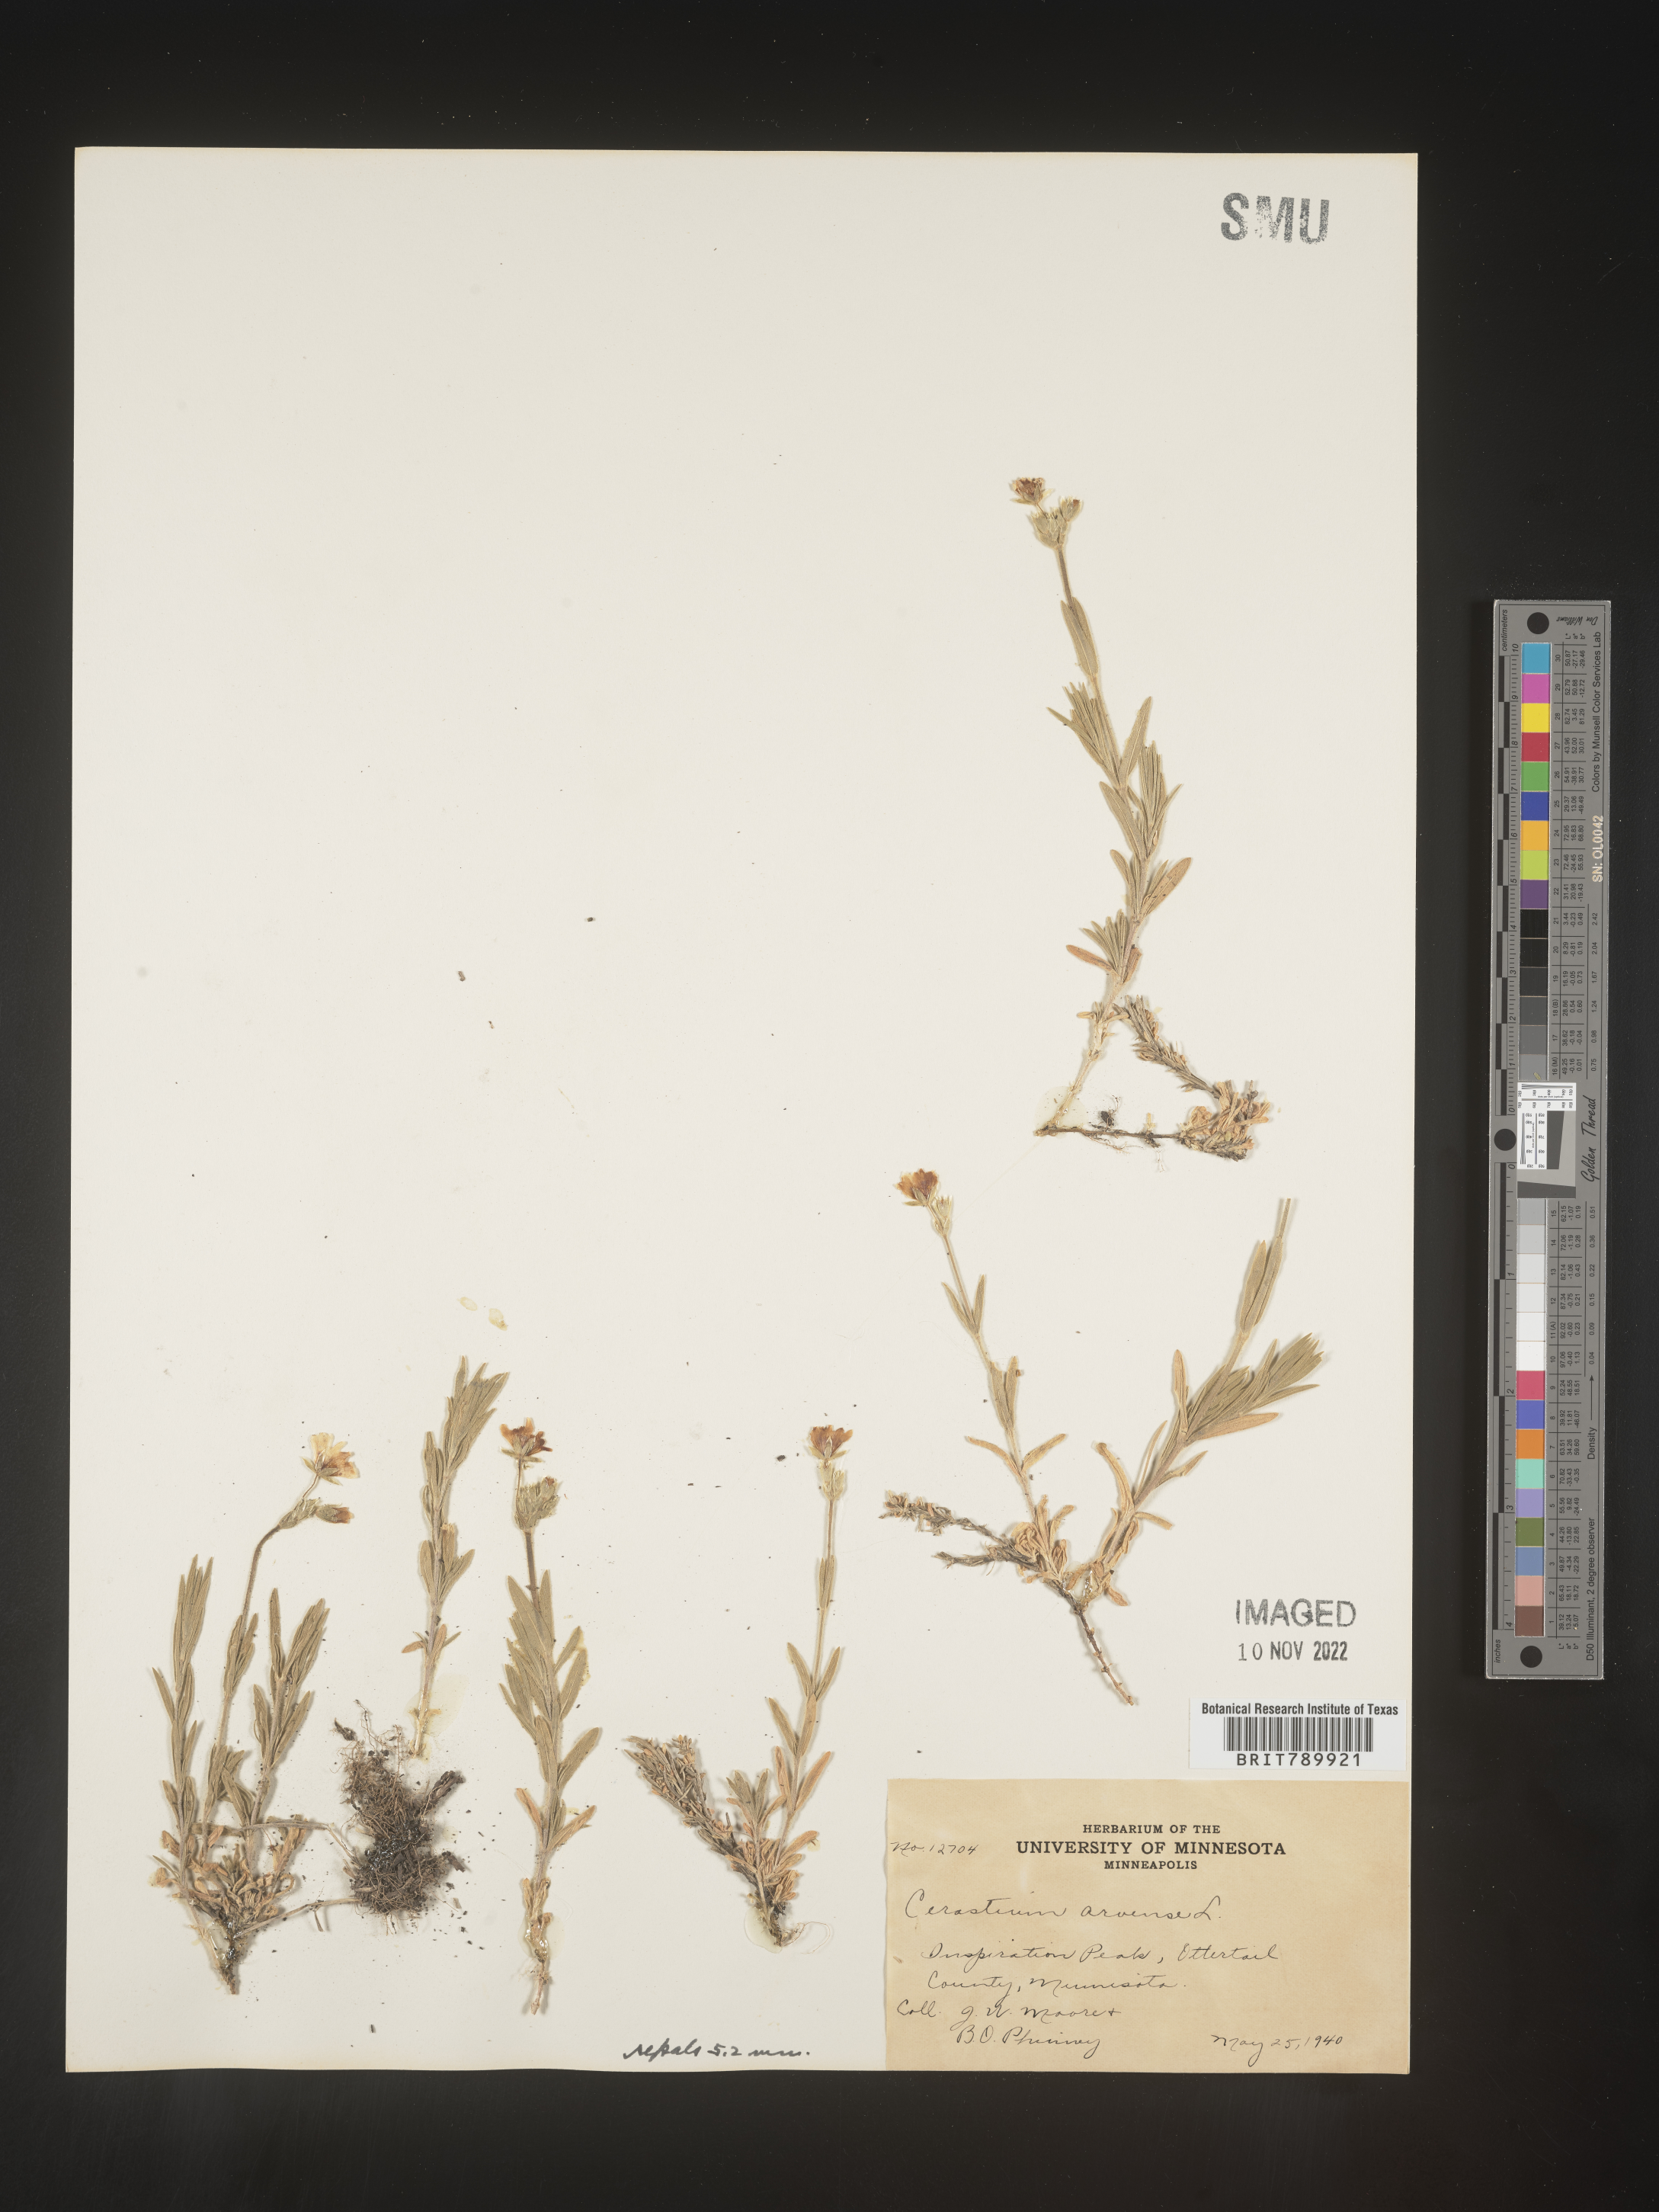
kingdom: Plantae
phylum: Tracheophyta
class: Magnoliopsida
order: Caryophyllales
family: Caryophyllaceae
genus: Cerastium
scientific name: Cerastium arvense
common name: Field mouse-ear
